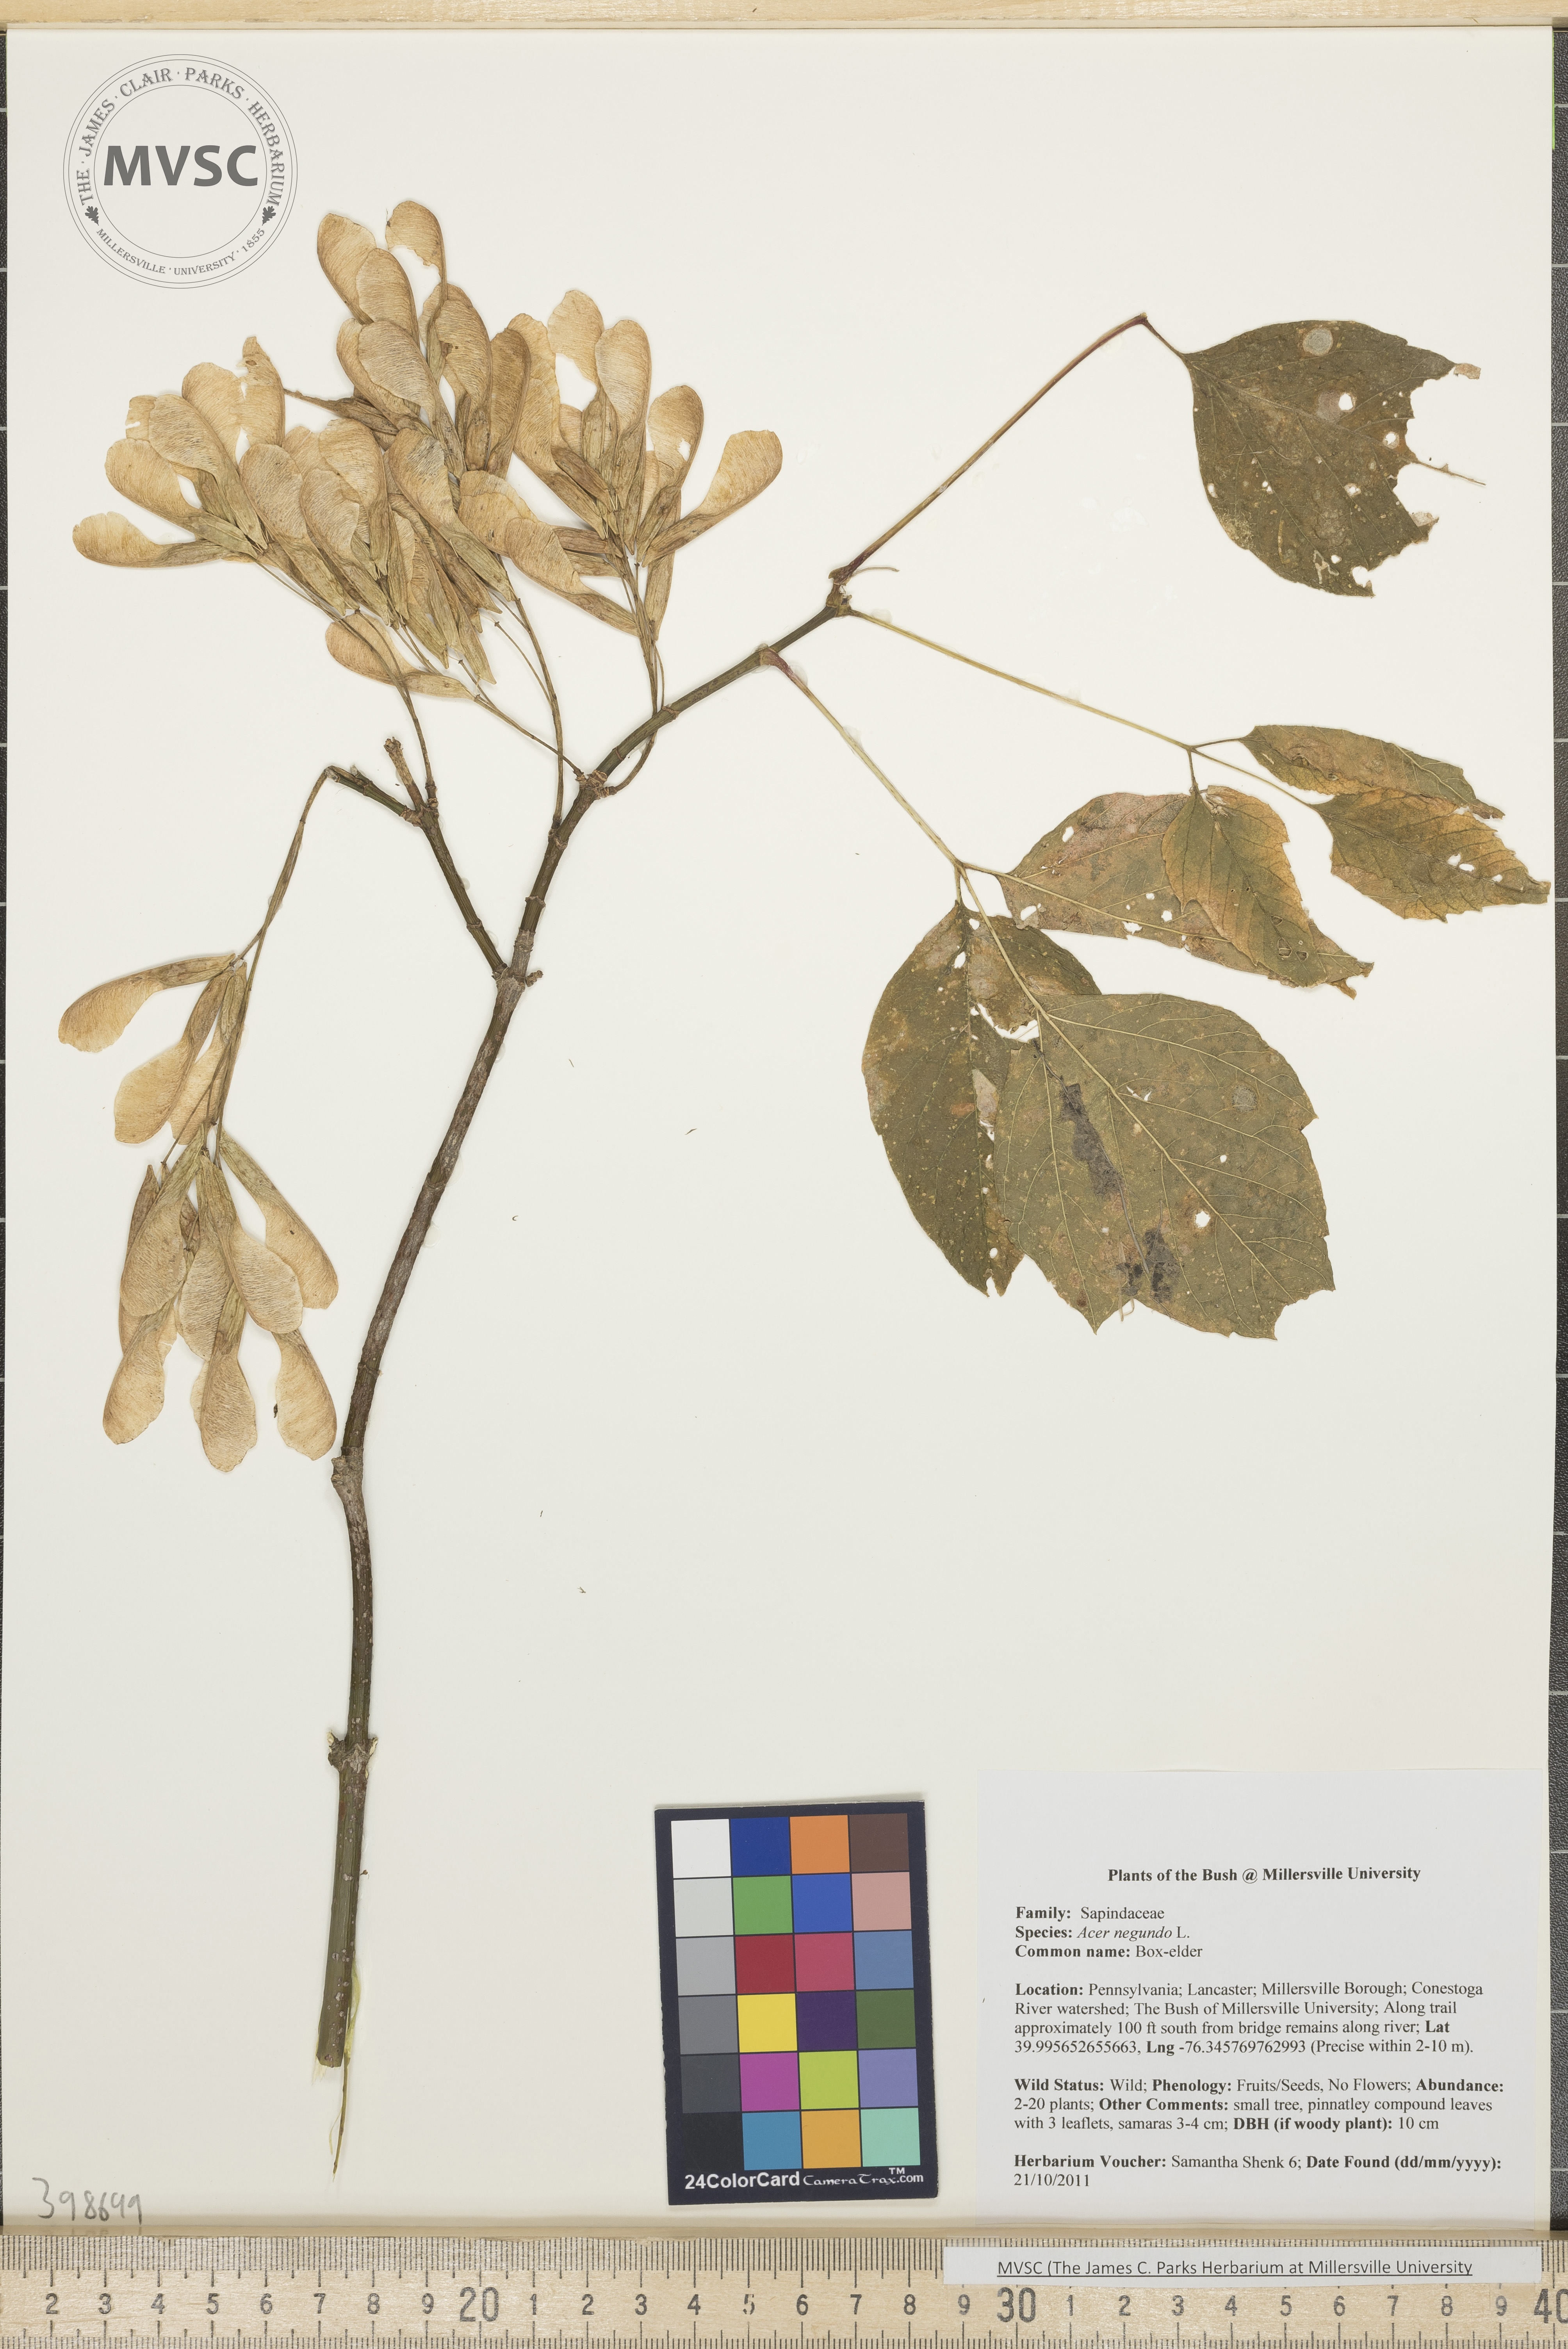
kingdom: Plantae
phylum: Tracheophyta
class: Magnoliopsida
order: Sapindales
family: Sapindaceae
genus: Acer
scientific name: Acer negundo
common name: Box-elder
